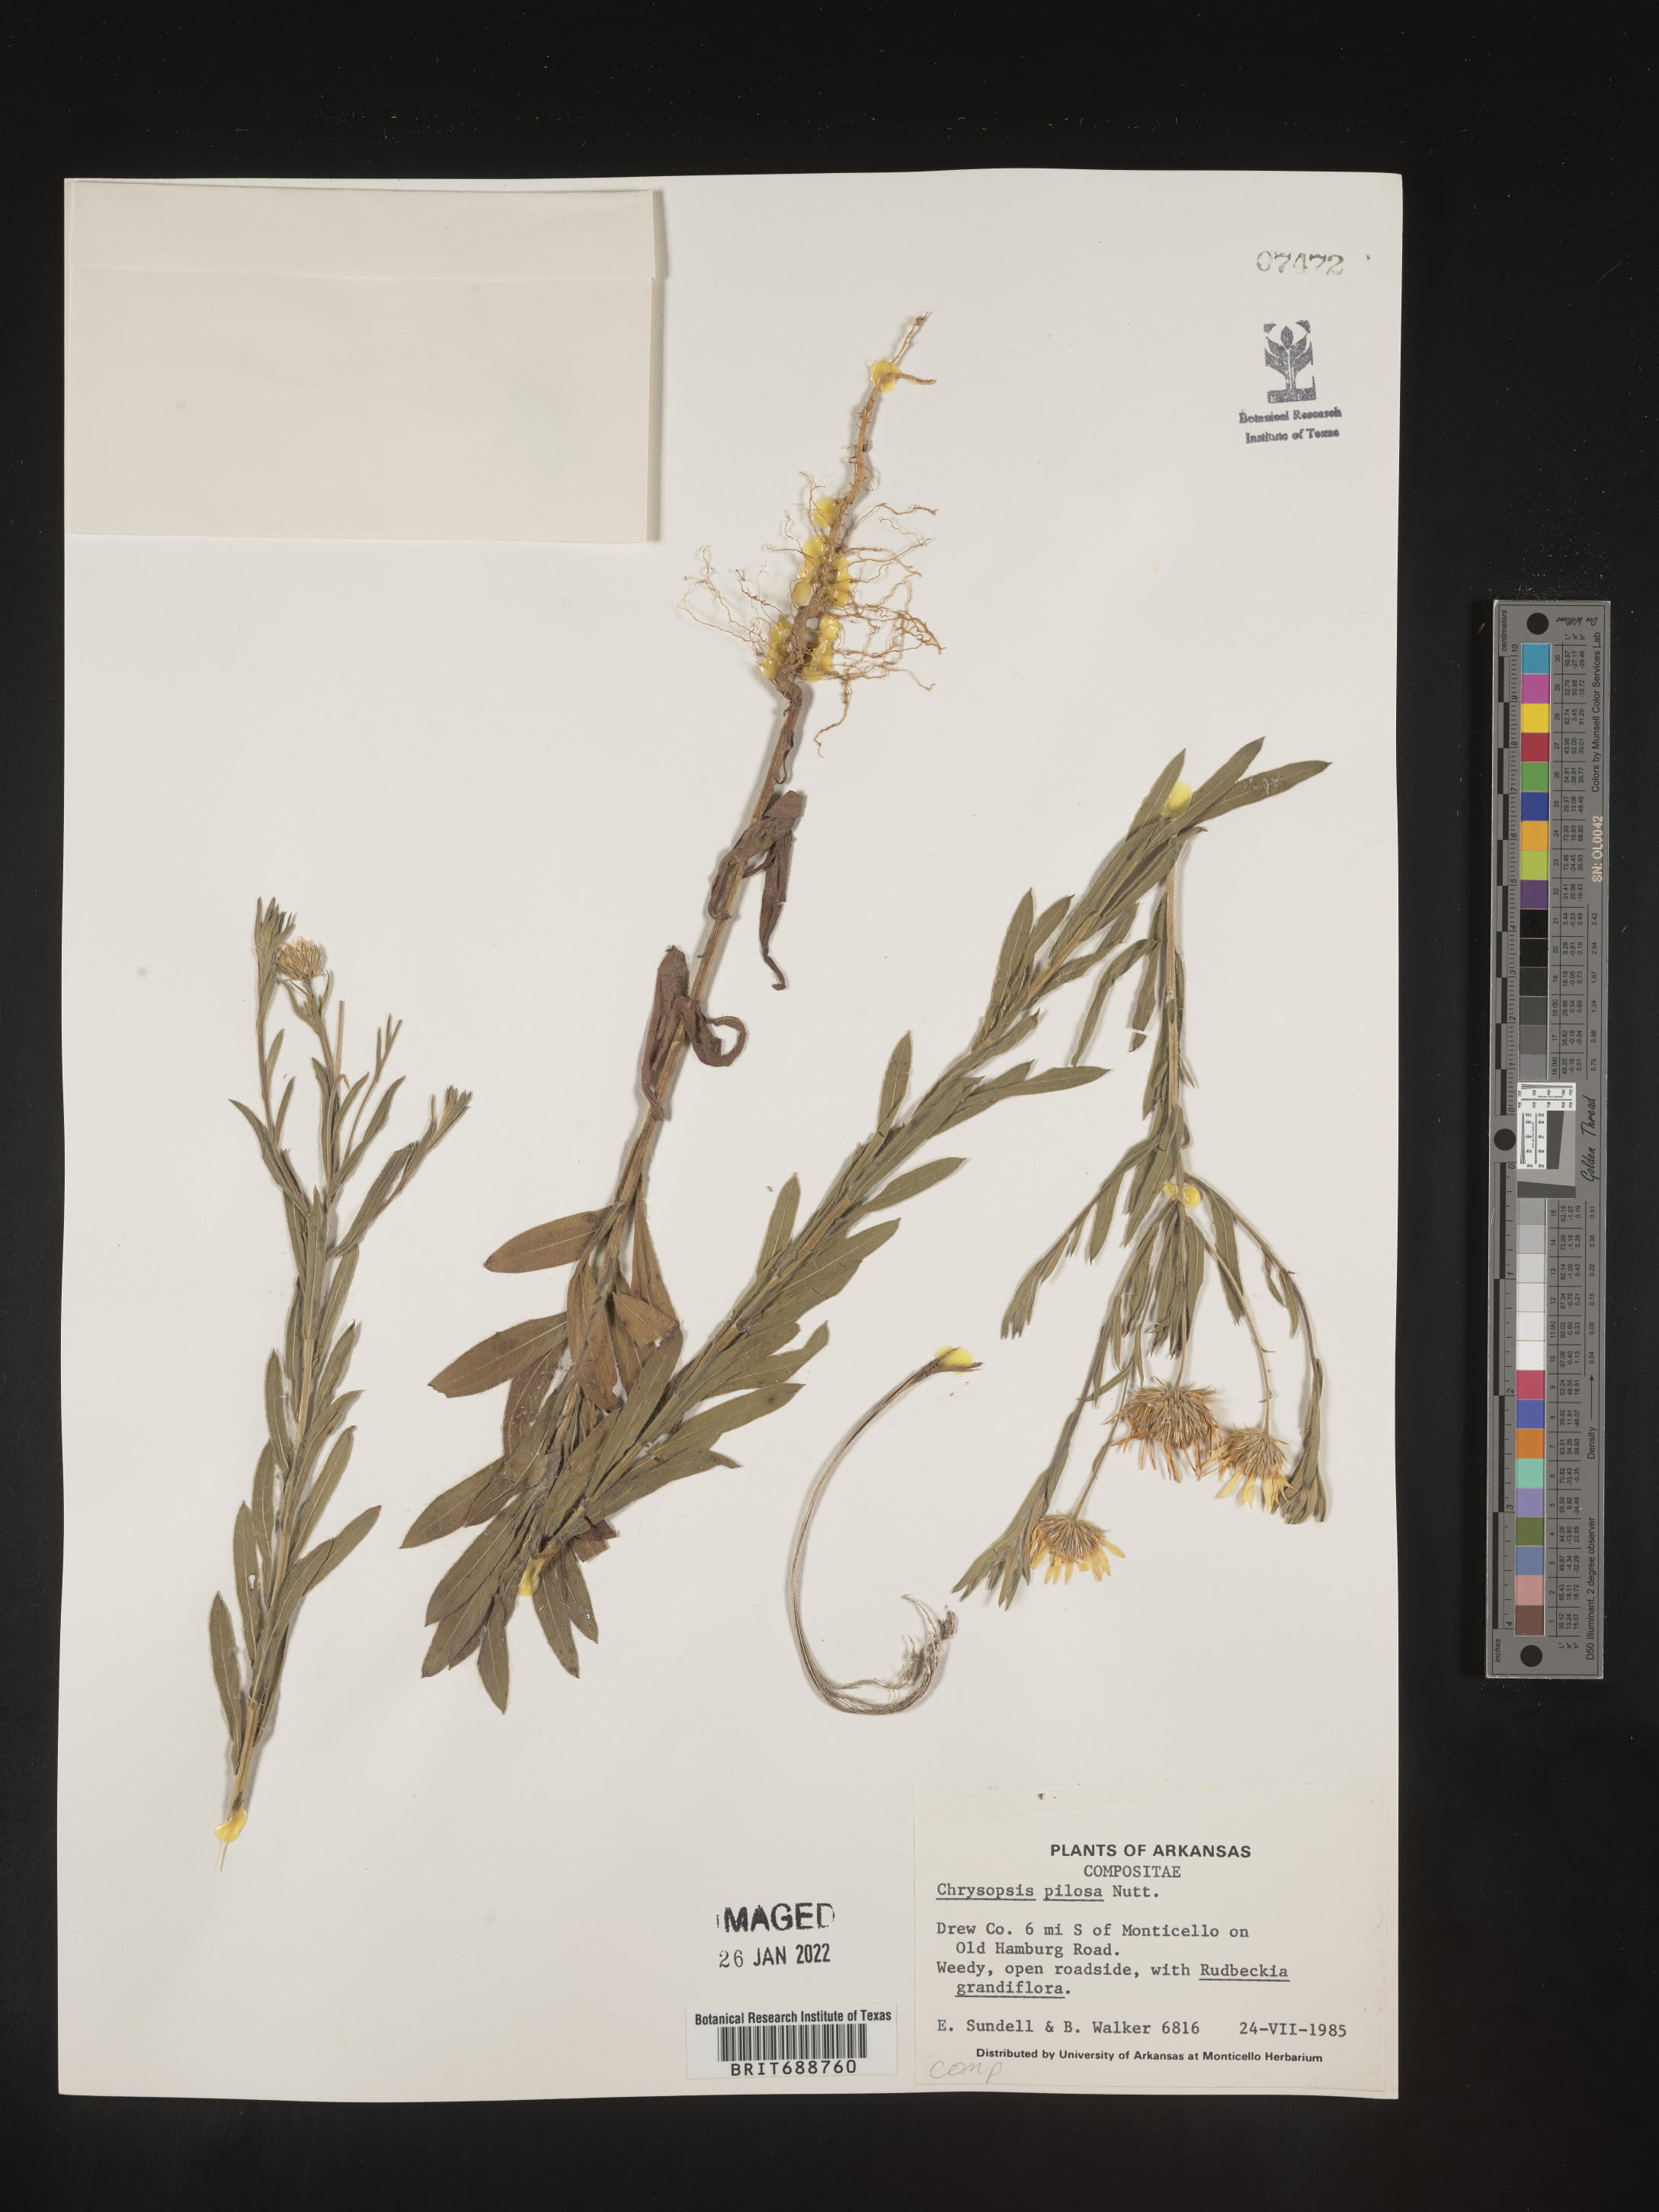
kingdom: Plantae
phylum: Tracheophyta
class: Magnoliopsida
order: Asterales
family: Asteraceae
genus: Bradburia
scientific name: Bradburia pilosa
